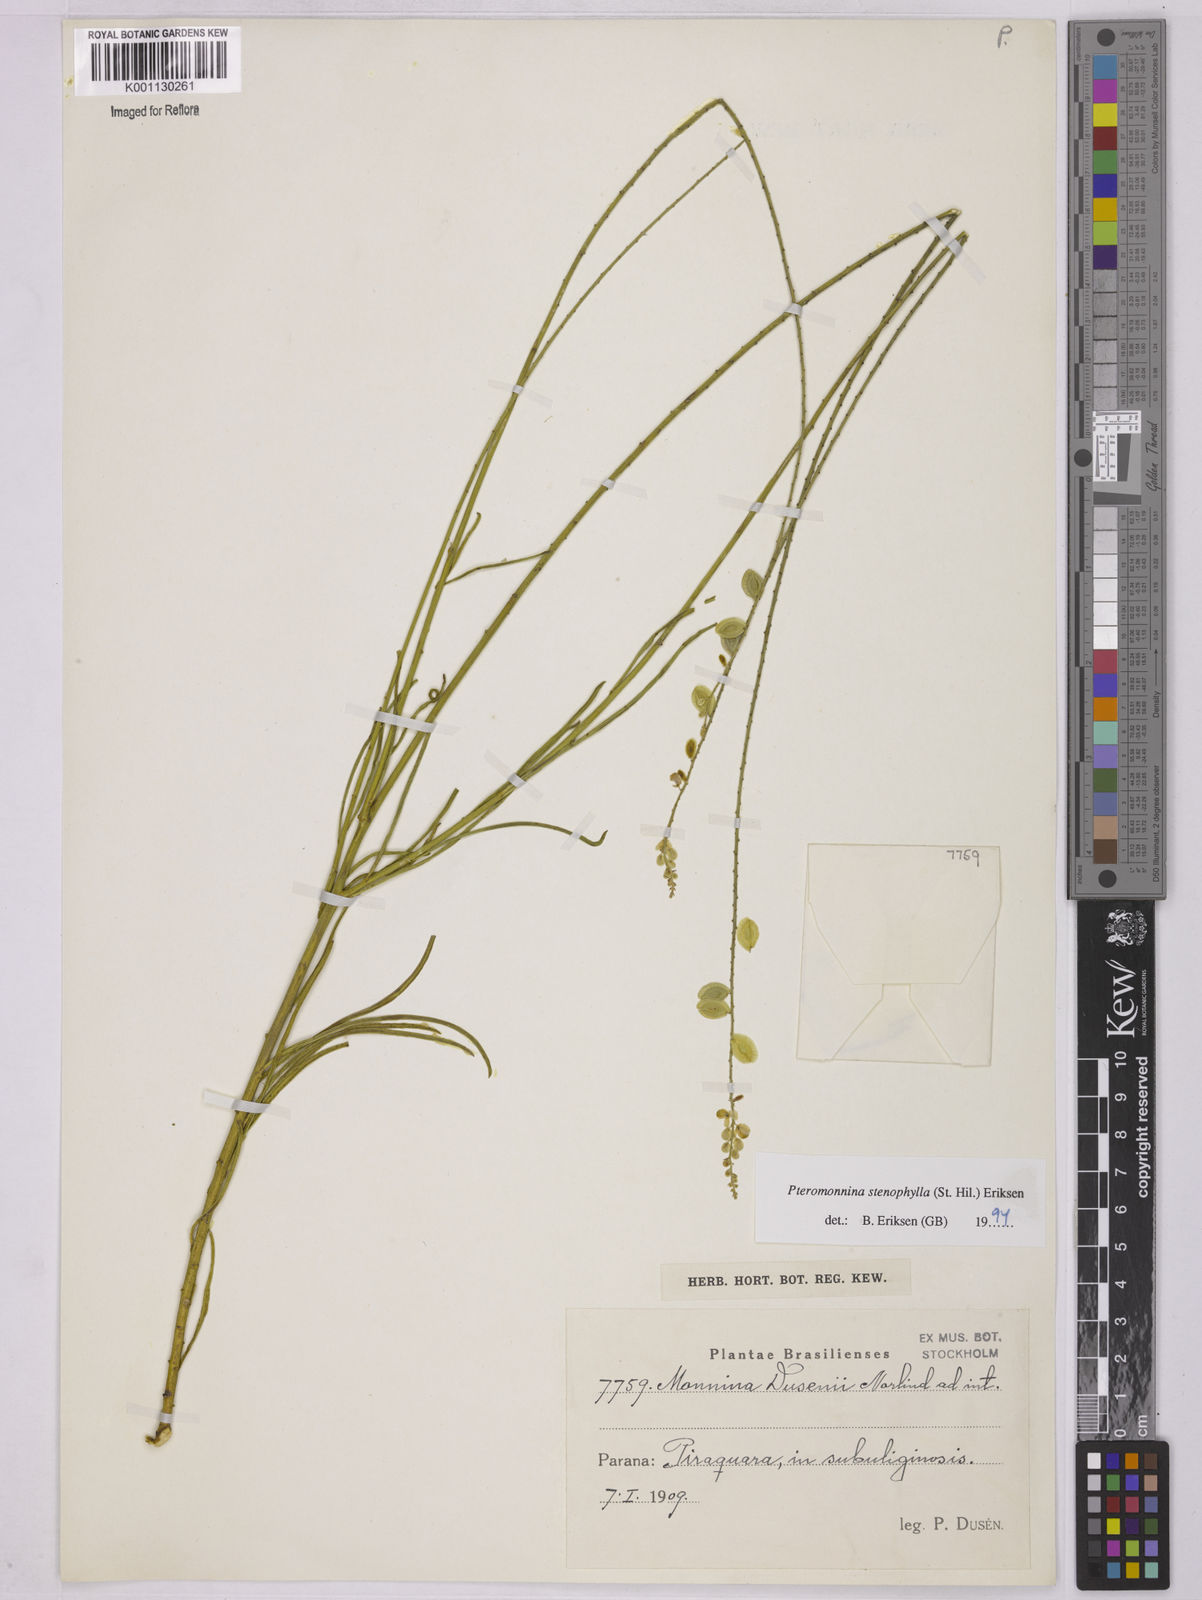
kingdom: Plantae
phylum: Tracheophyta
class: Magnoliopsida
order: Fabales
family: Polygalaceae
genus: Monnina
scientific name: Monnina
